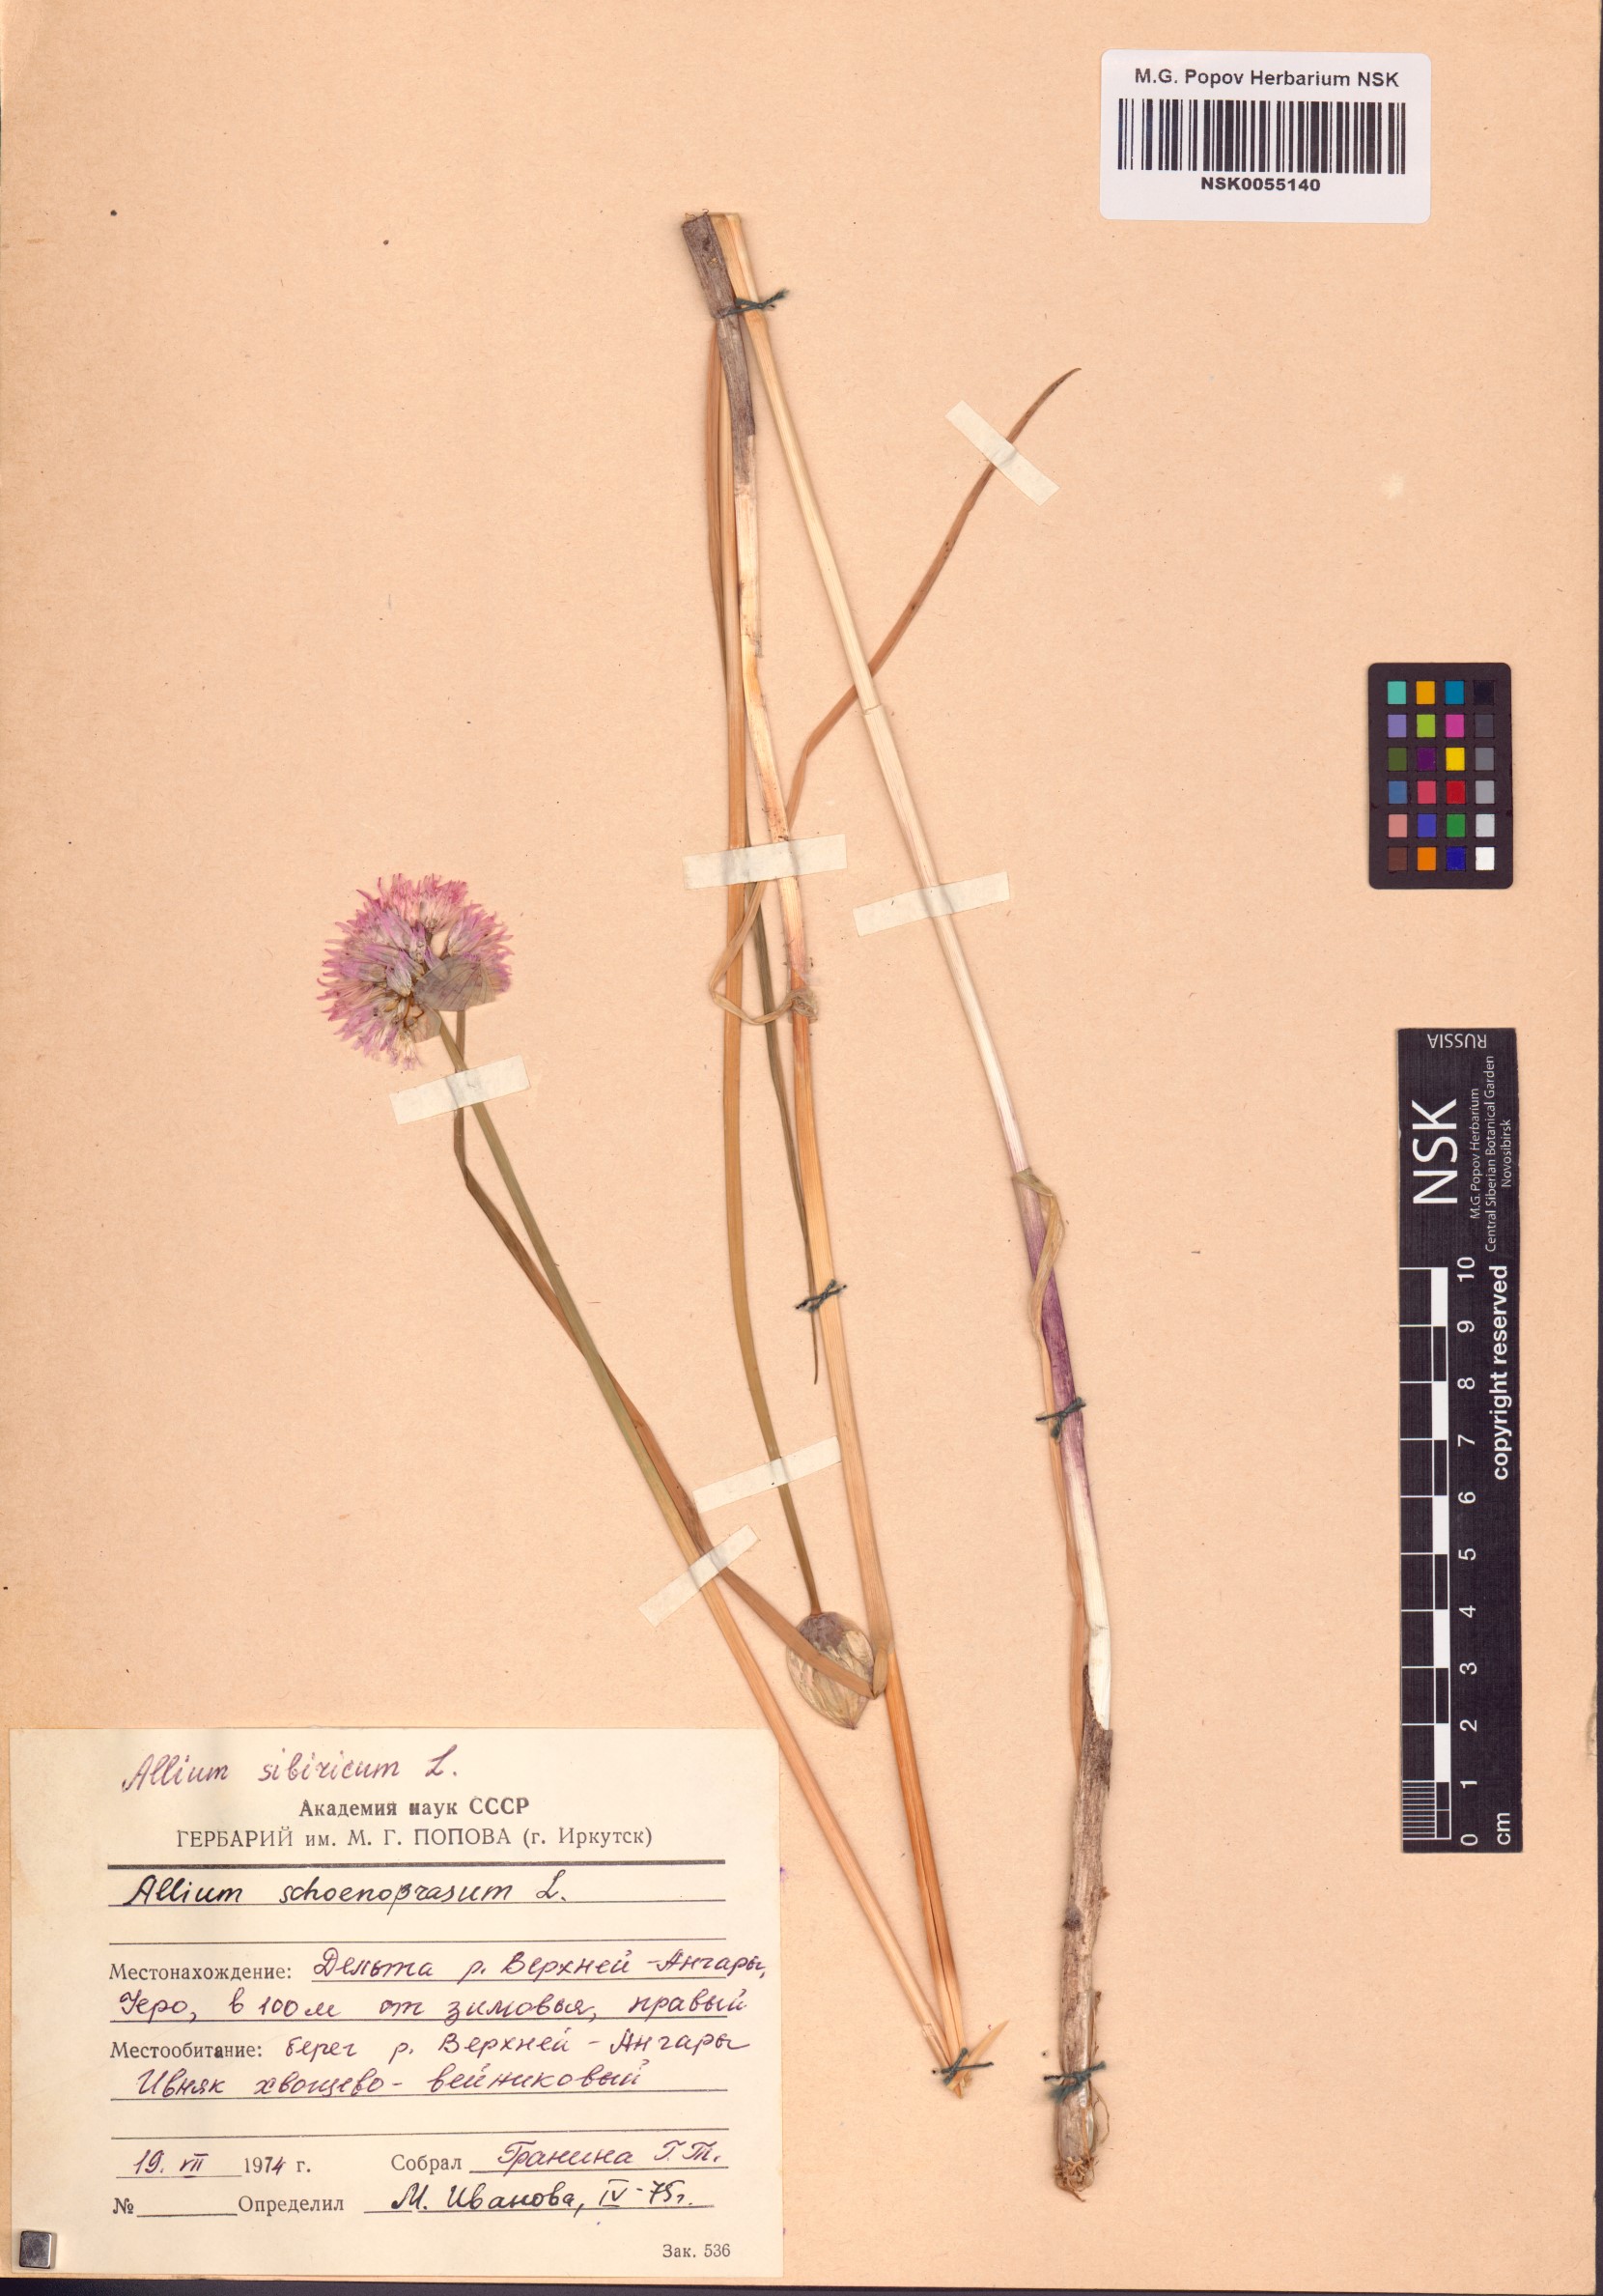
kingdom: Plantae
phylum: Tracheophyta
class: Liliopsida
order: Asparagales
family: Amaryllidaceae
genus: Allium
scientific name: Allium schoenoprasum
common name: Chives
